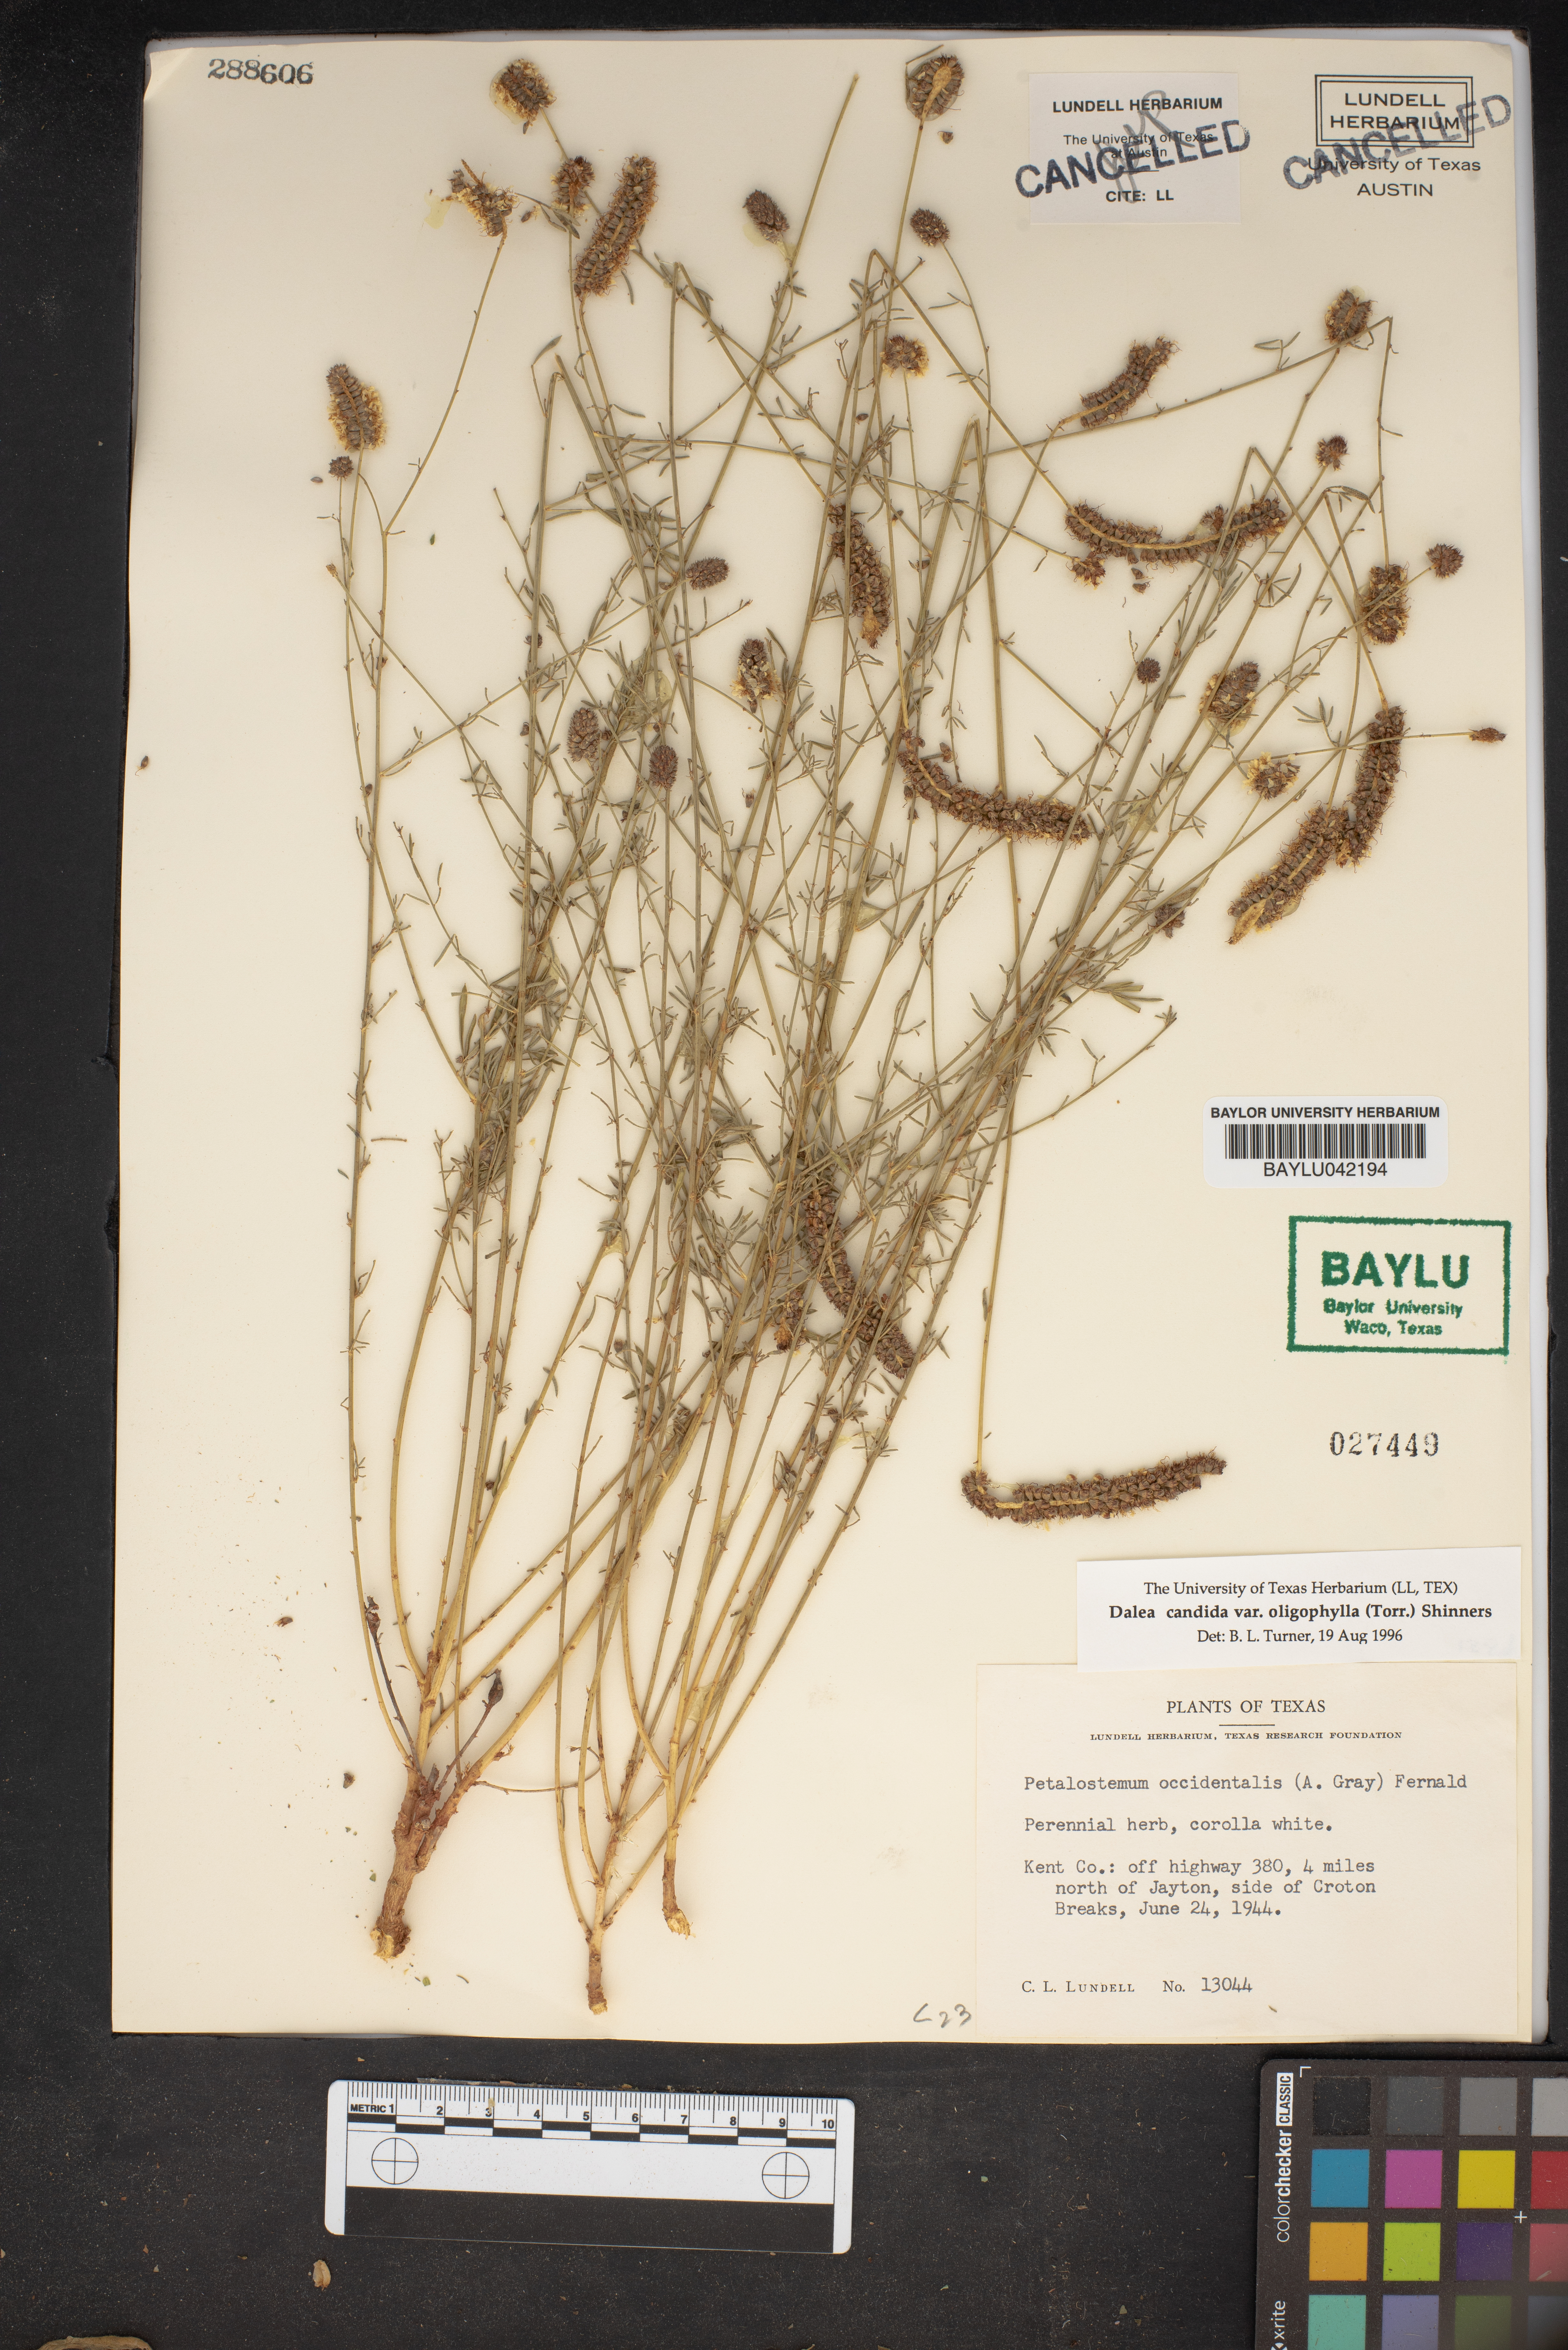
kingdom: Plantae
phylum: Tracheophyta
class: Magnoliopsida
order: Fabales
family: Fabaceae
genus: Dalea
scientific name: Dalea candida
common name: White prairie-clover
